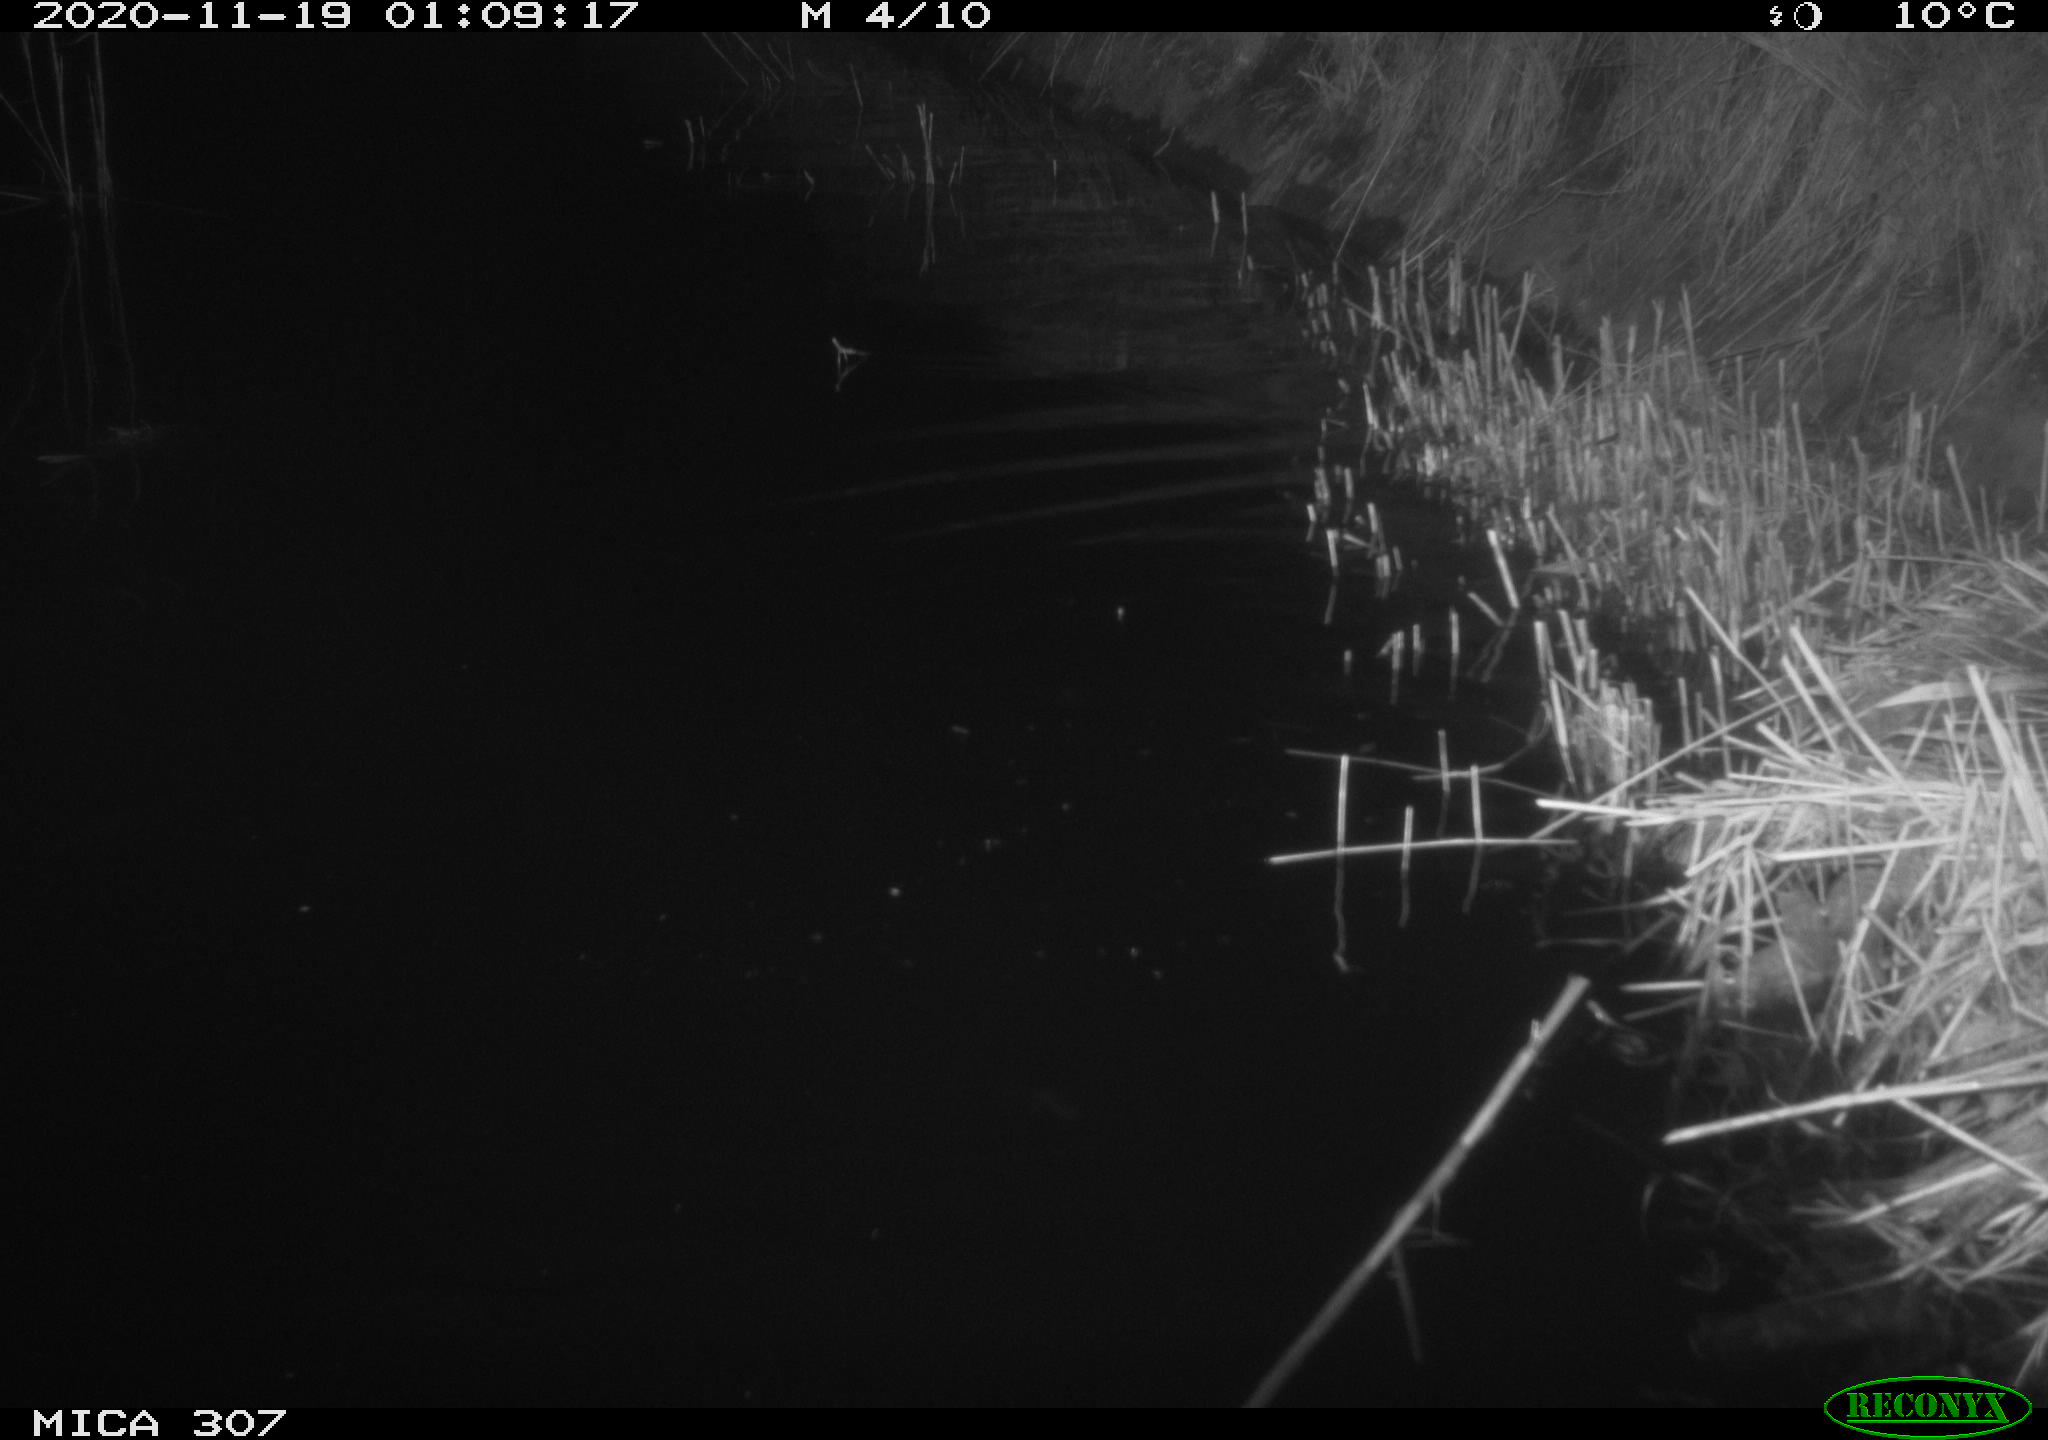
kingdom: Animalia
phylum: Chordata
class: Mammalia
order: Rodentia
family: Muridae
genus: Rattus
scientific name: Rattus norvegicus
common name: Brown rat
